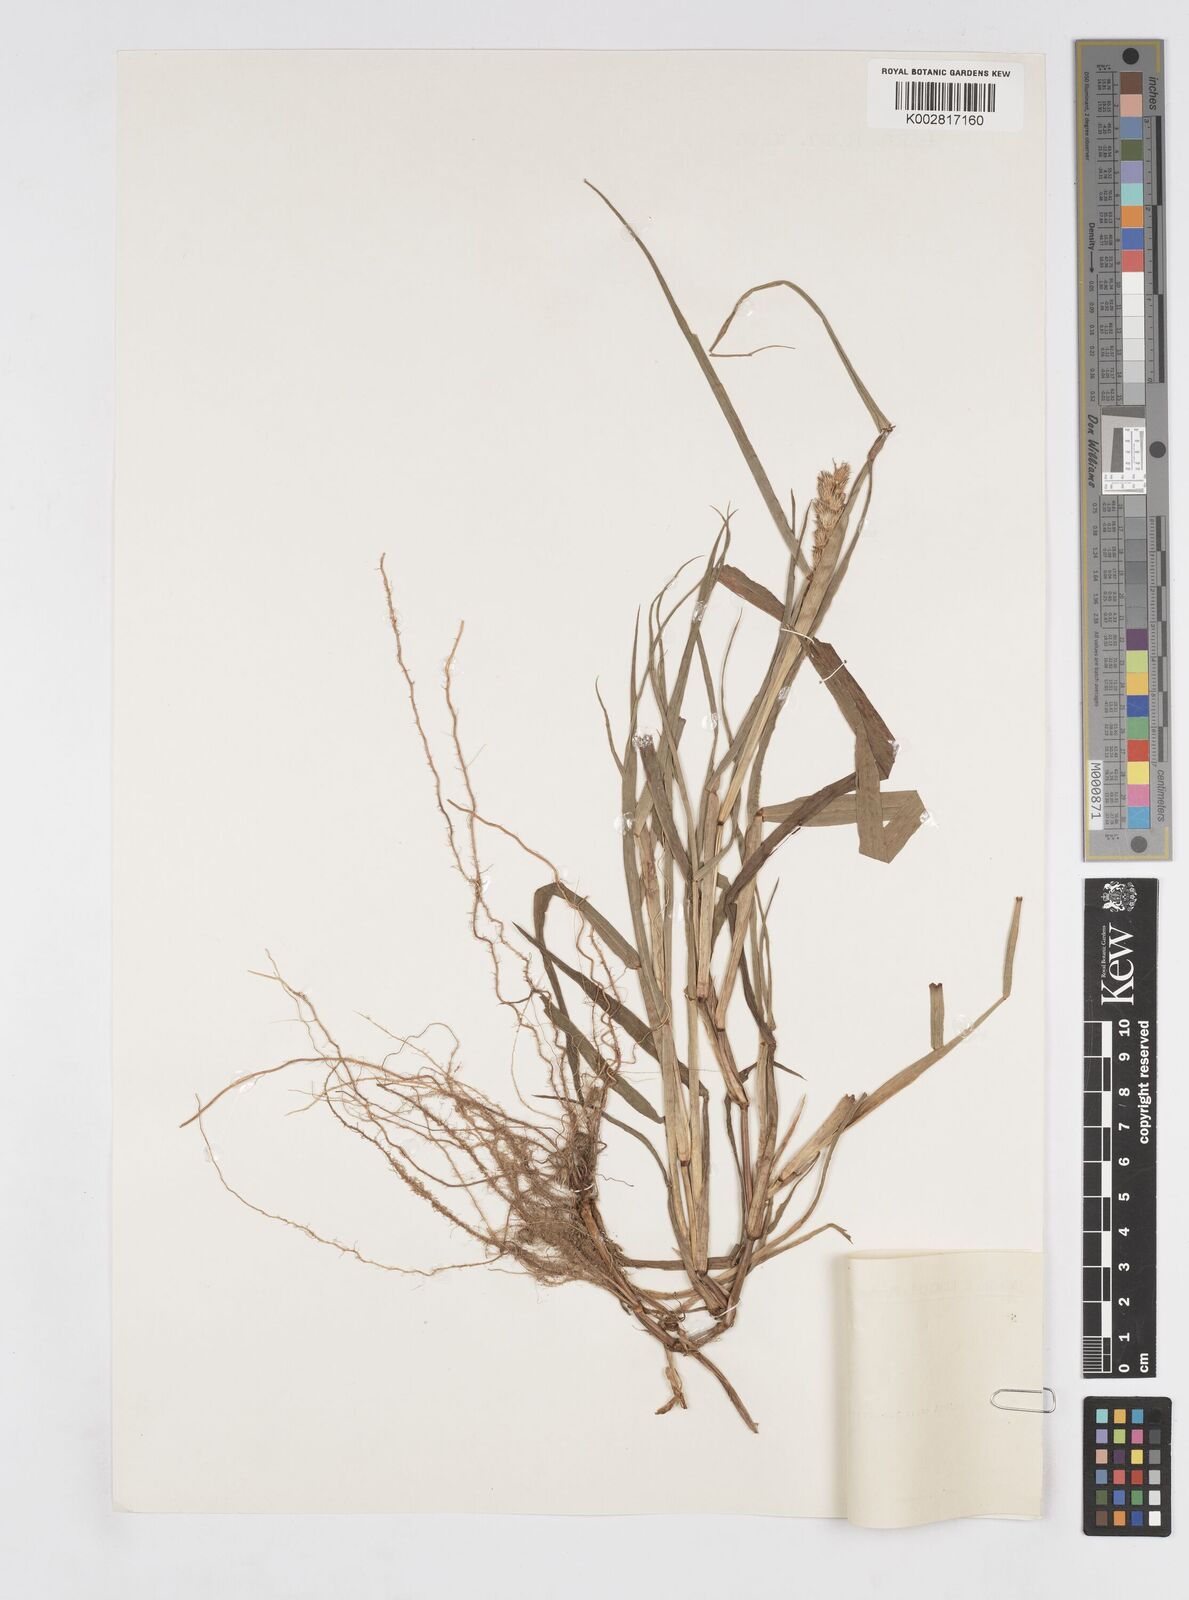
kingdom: Plantae
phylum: Tracheophyta
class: Liliopsida
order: Poales
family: Poaceae
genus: Cenchrus
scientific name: Cenchrus echinatus
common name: Southern sandbur
